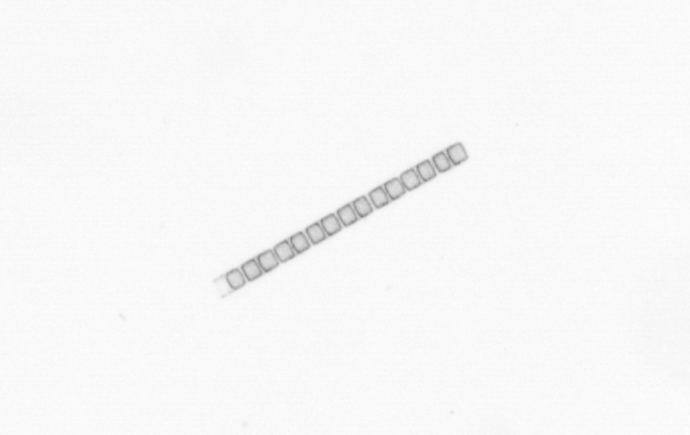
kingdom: Chromista
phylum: Ochrophyta
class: Bacillariophyceae
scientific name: Bacillariophyceae
